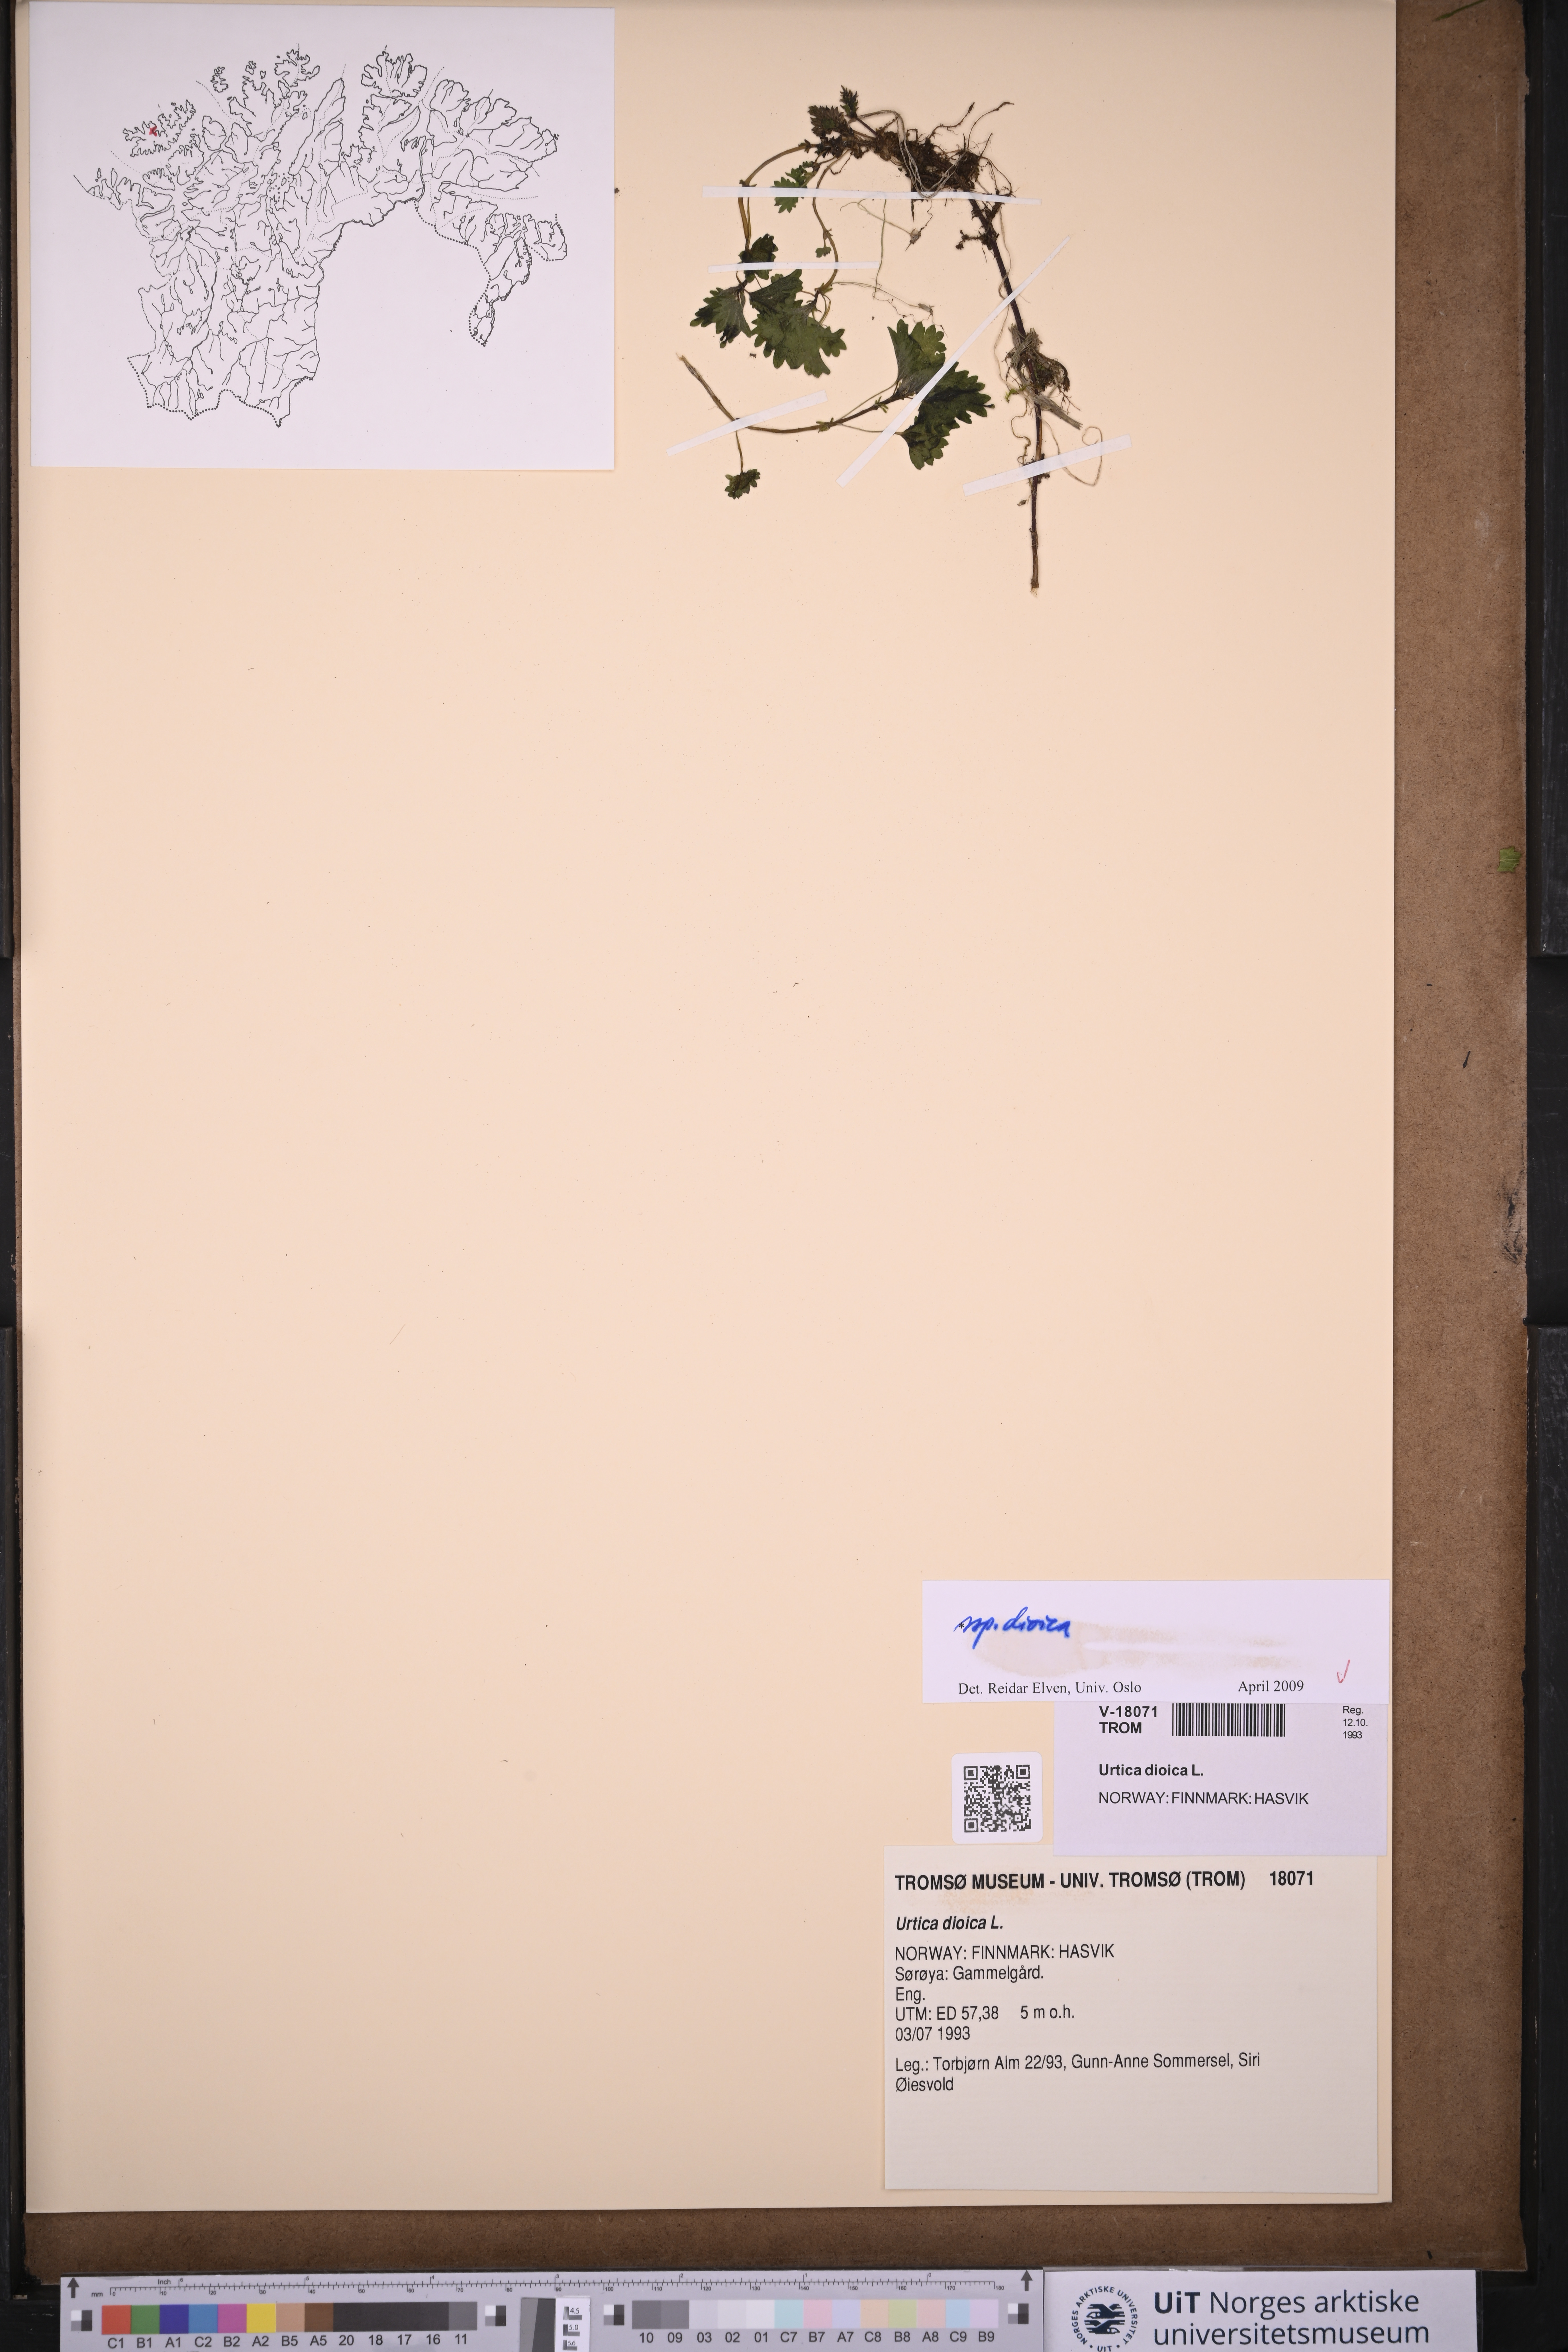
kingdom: Plantae
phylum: Tracheophyta
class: Magnoliopsida
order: Rosales
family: Urticaceae
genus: Urtica
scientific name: Urtica dioica
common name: Common nettle
